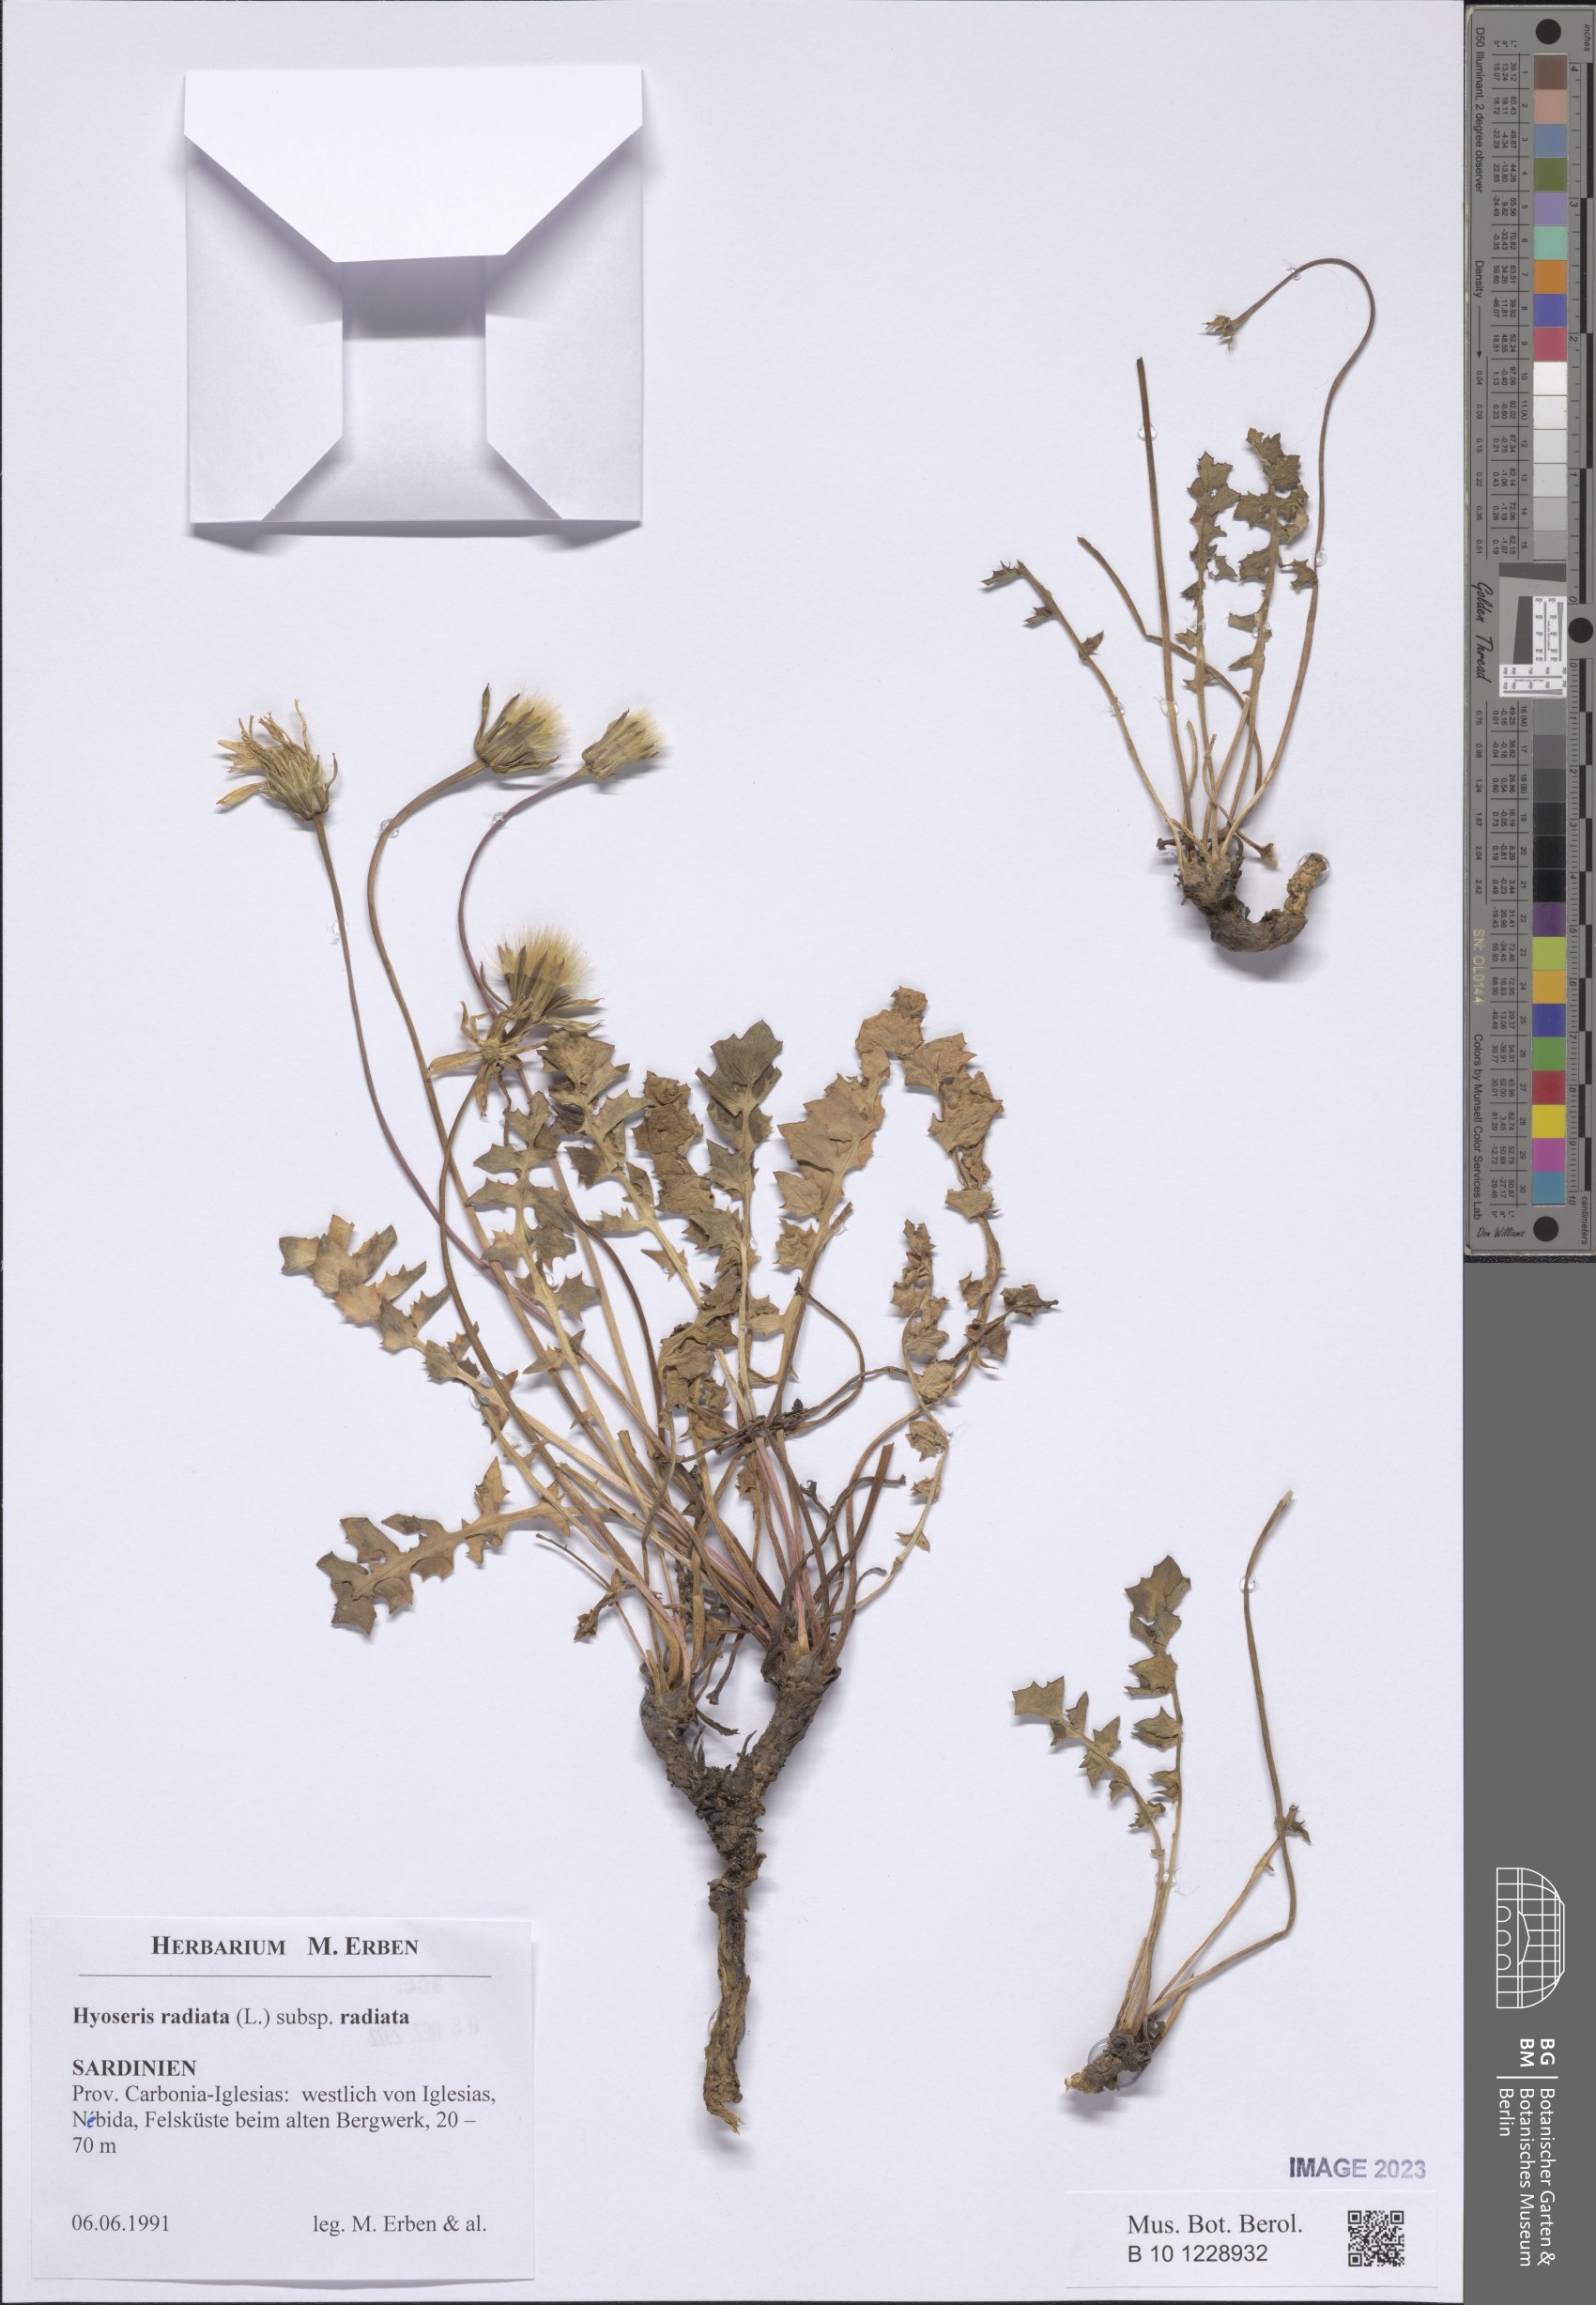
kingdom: Plantae
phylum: Tracheophyta
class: Magnoliopsida
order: Asterales
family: Asteraceae
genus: Hyoseris
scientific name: Hyoseris radiata
